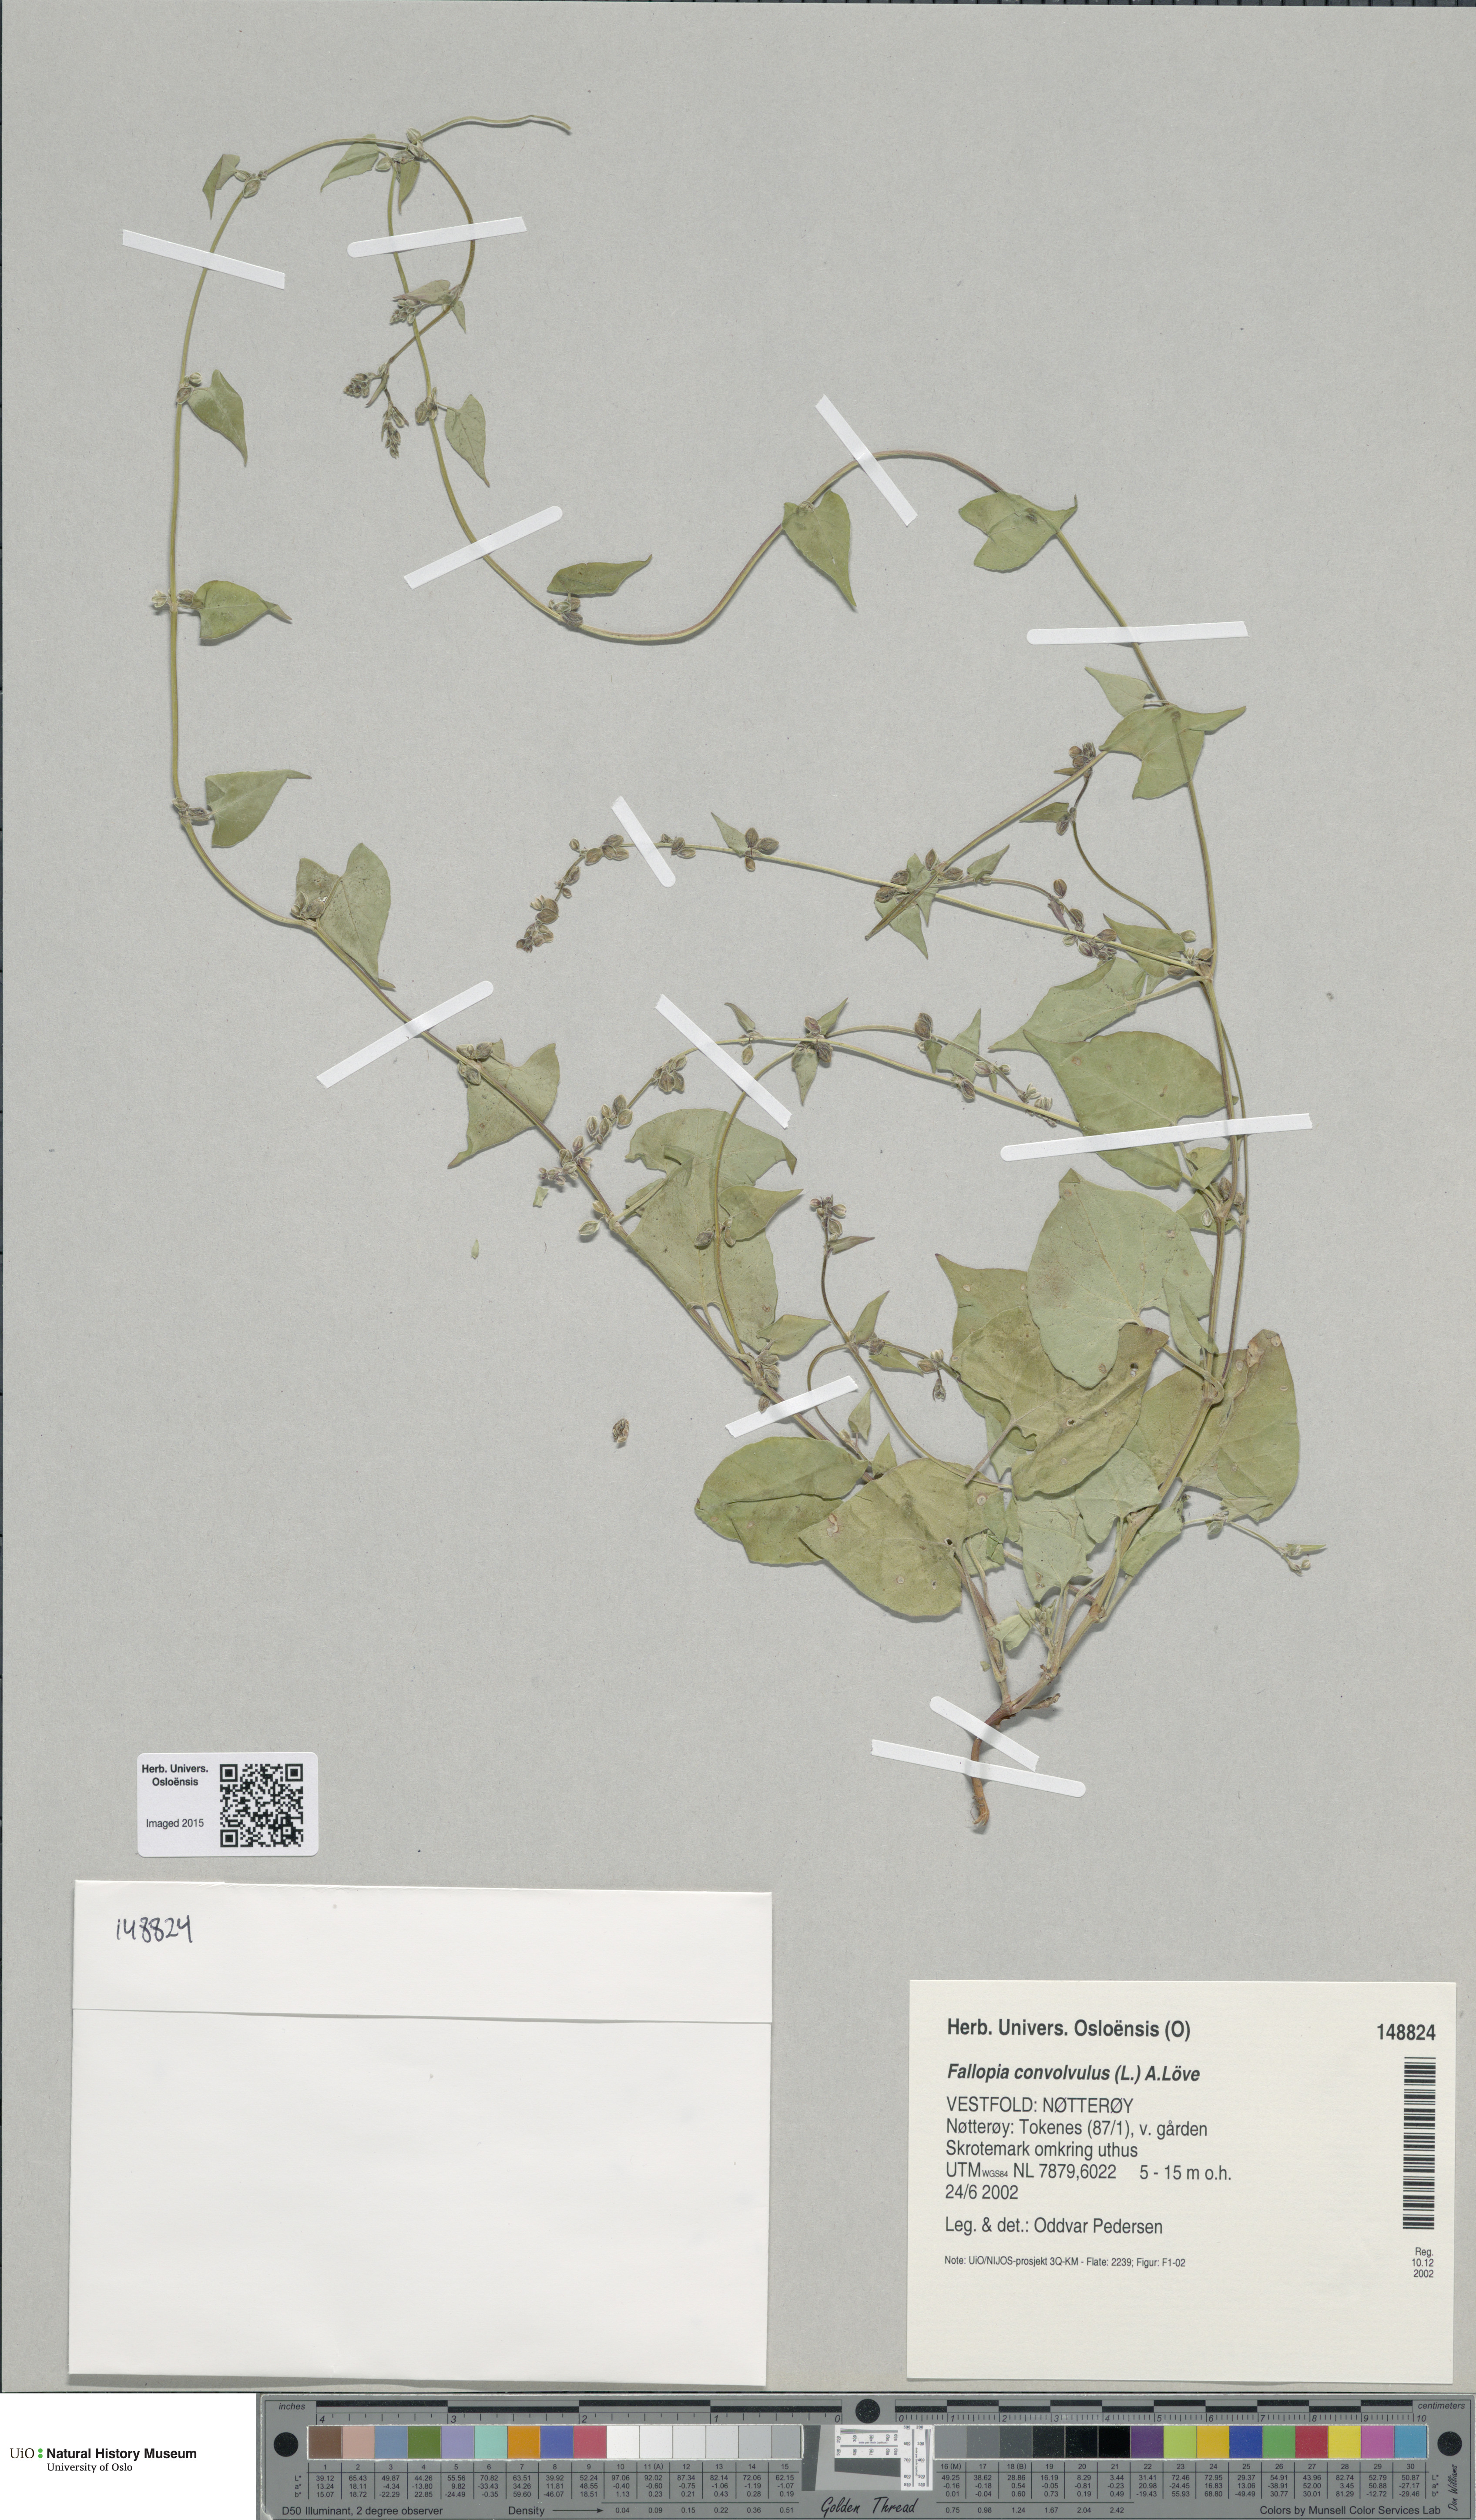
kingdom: Plantae
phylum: Tracheophyta
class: Magnoliopsida
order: Caryophyllales
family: Polygonaceae
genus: Fallopia
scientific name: Fallopia convolvulus
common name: Black bindweed
